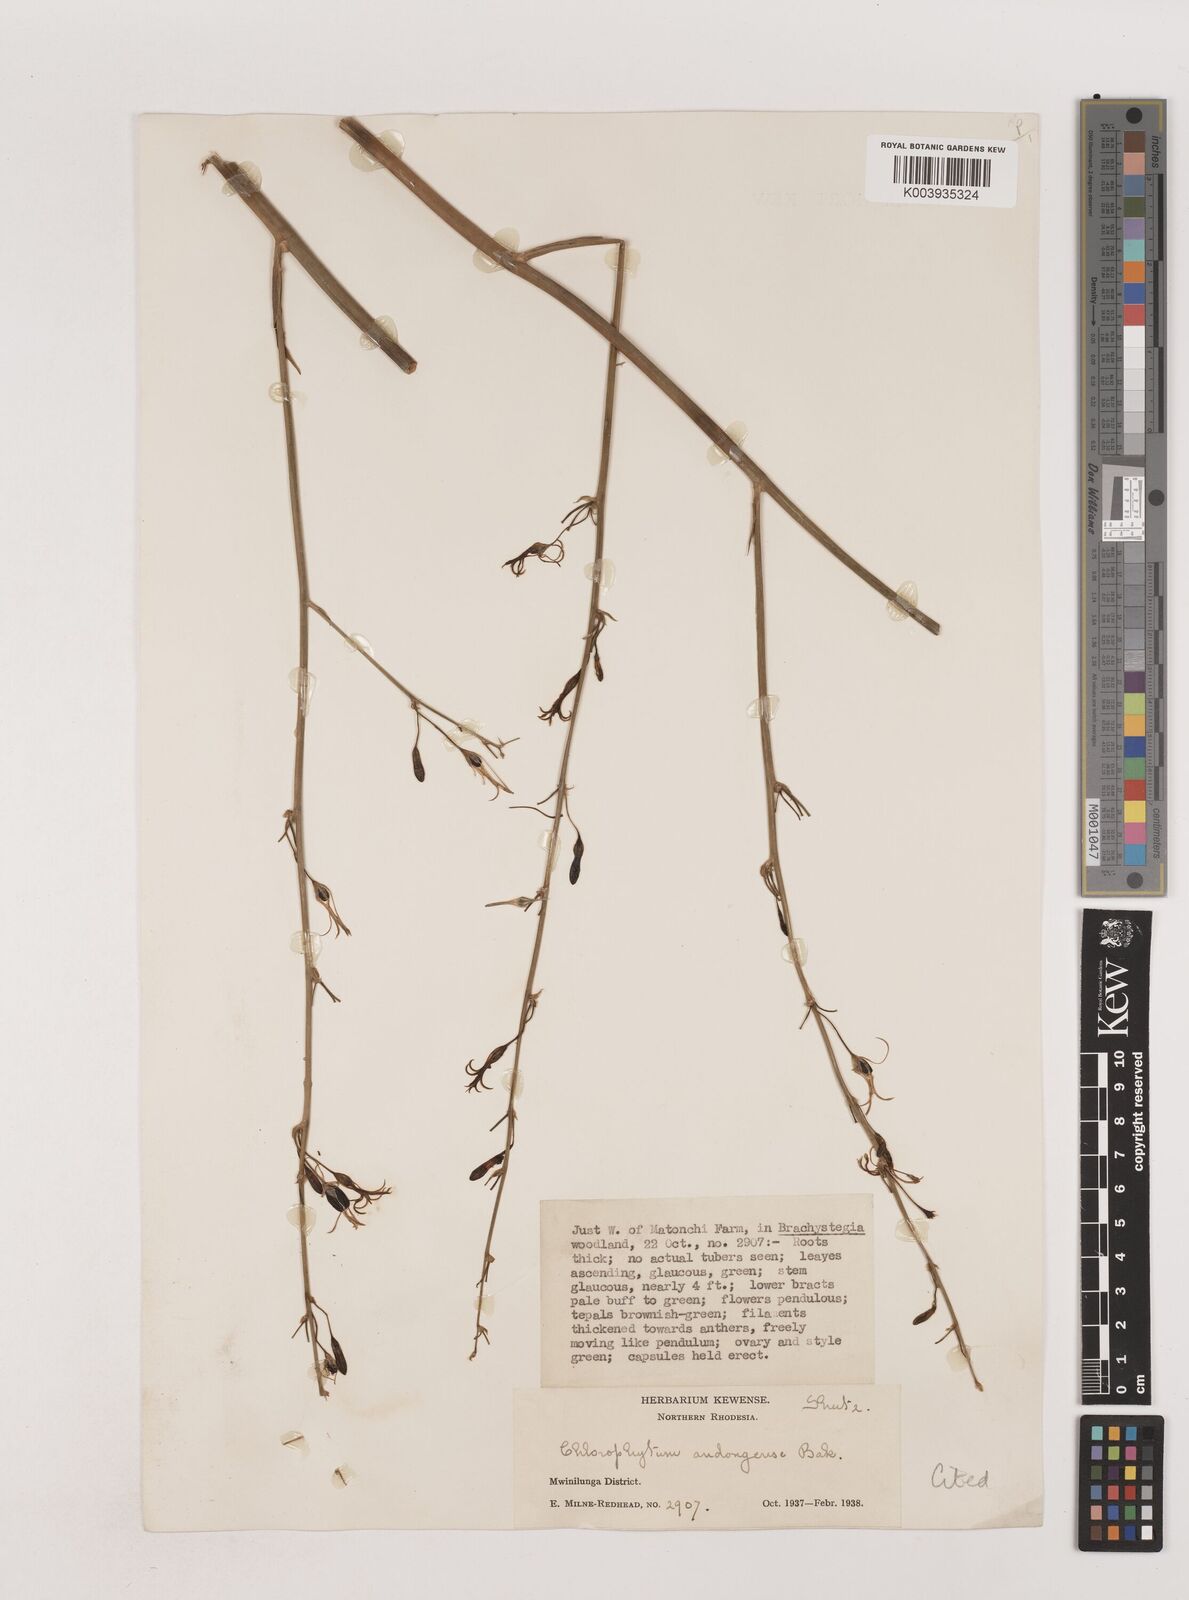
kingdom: Plantae
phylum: Tracheophyta
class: Liliopsida
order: Asparagales
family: Asparagaceae
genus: Chlorophytum
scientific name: Chlorophytum andongense
